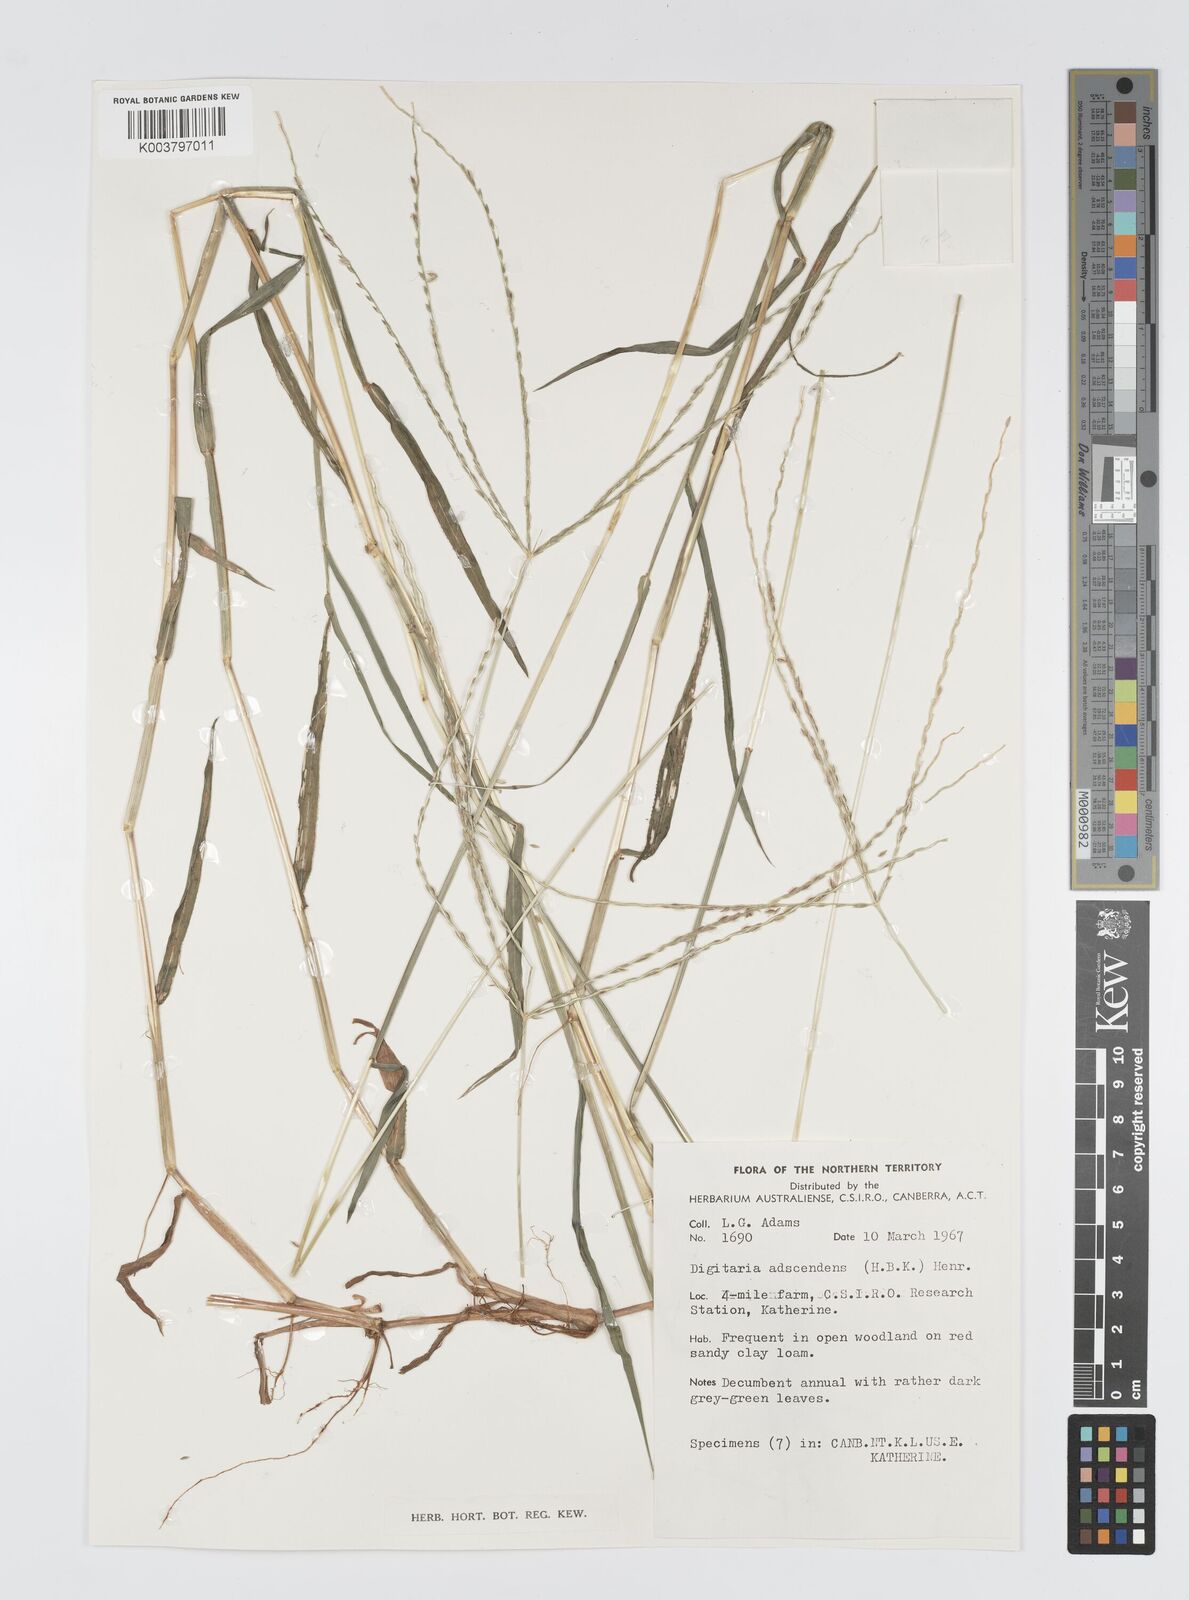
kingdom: Plantae
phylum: Tracheophyta
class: Liliopsida
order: Poales
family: Poaceae
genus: Digitaria
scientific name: Digitaria ciliaris
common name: Tropical finger-grass
